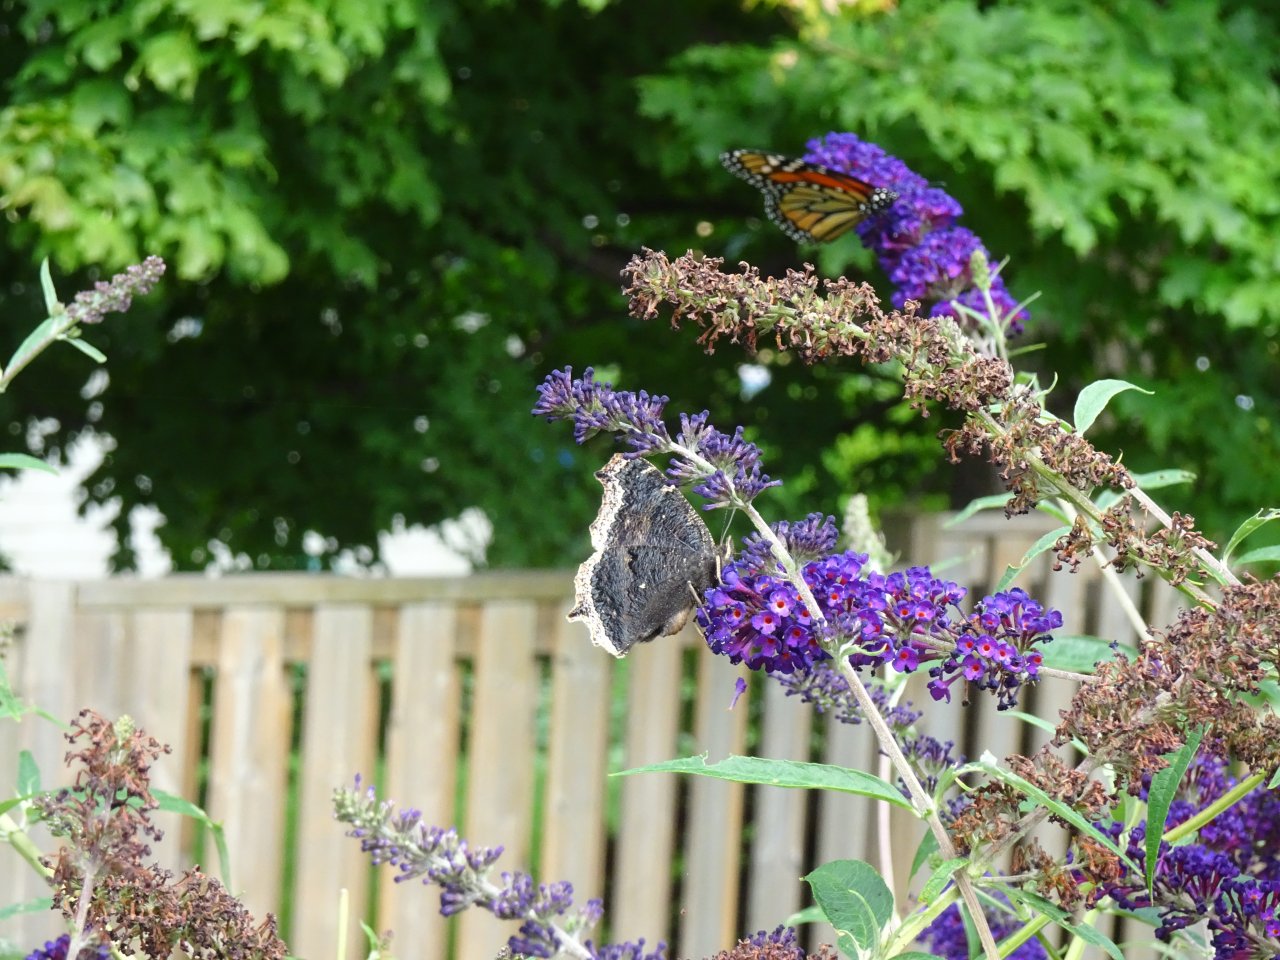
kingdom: Animalia
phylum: Arthropoda
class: Insecta
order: Lepidoptera
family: Nymphalidae
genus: Nymphalis
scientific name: Nymphalis antiopa
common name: Mourning Cloak
